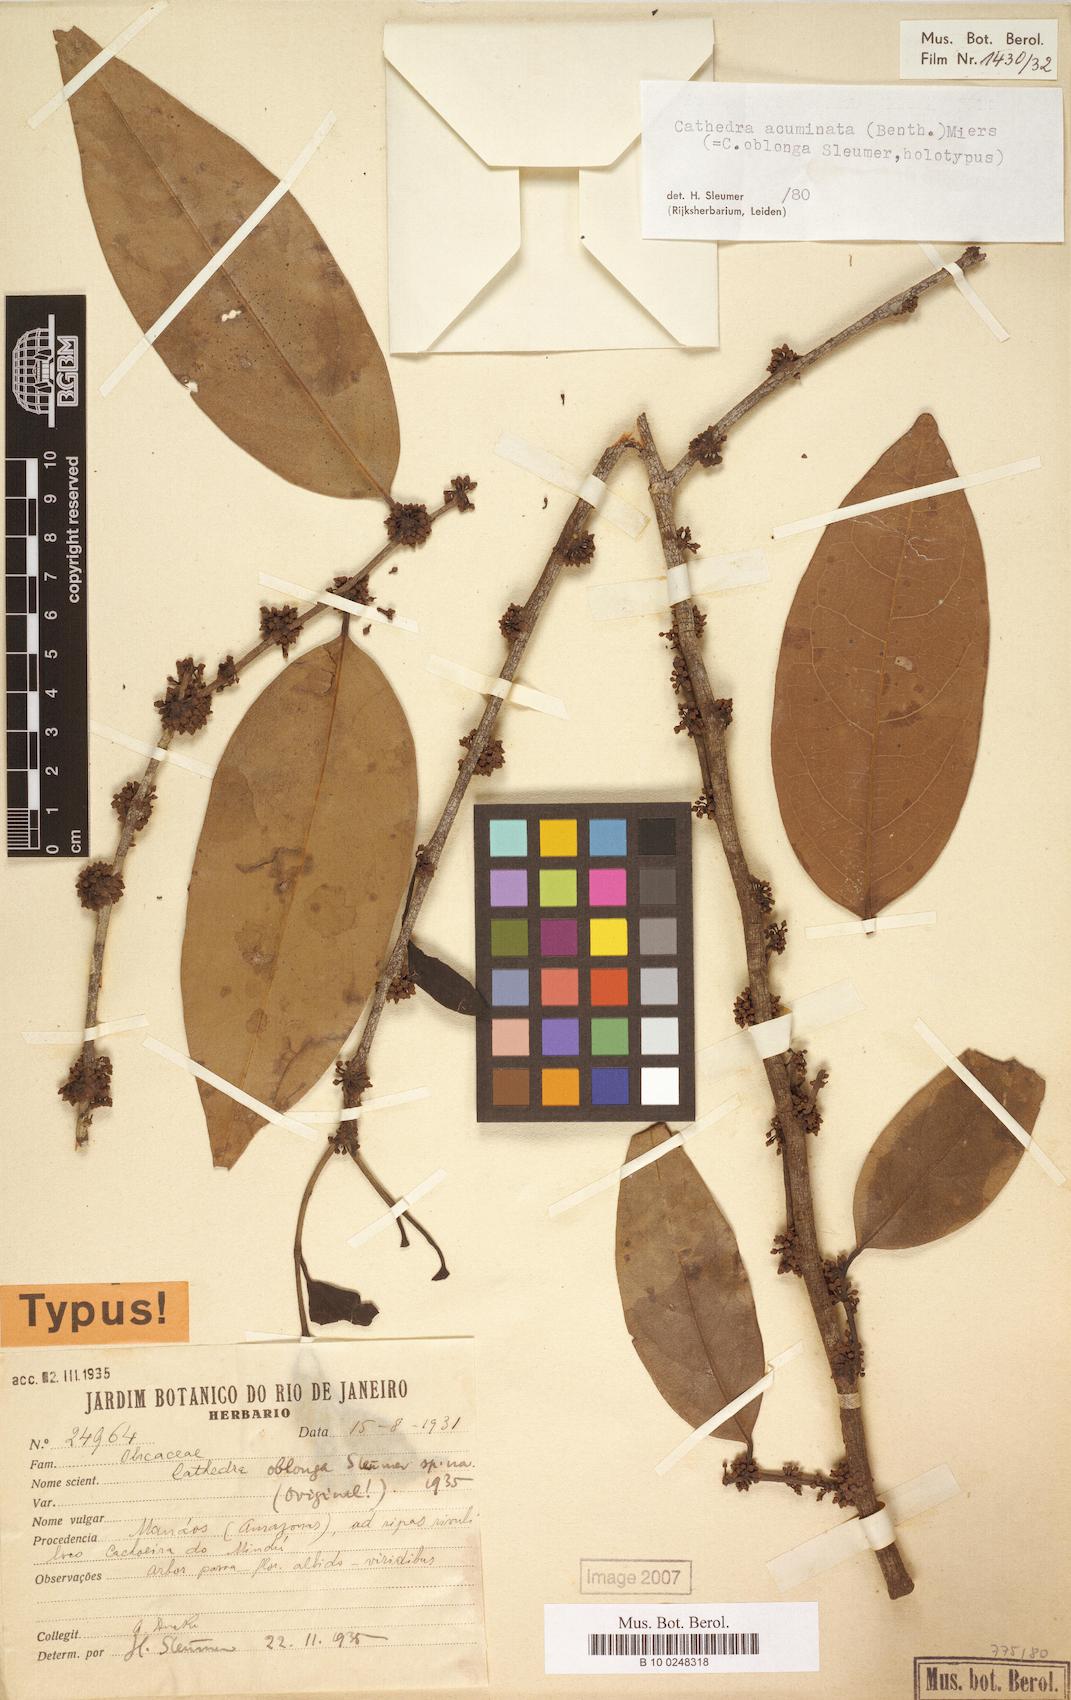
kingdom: Plantae
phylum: Tracheophyta
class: Magnoliopsida
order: Santalales
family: Aptandraceae
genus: Cathedra
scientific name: Cathedra acuminata
